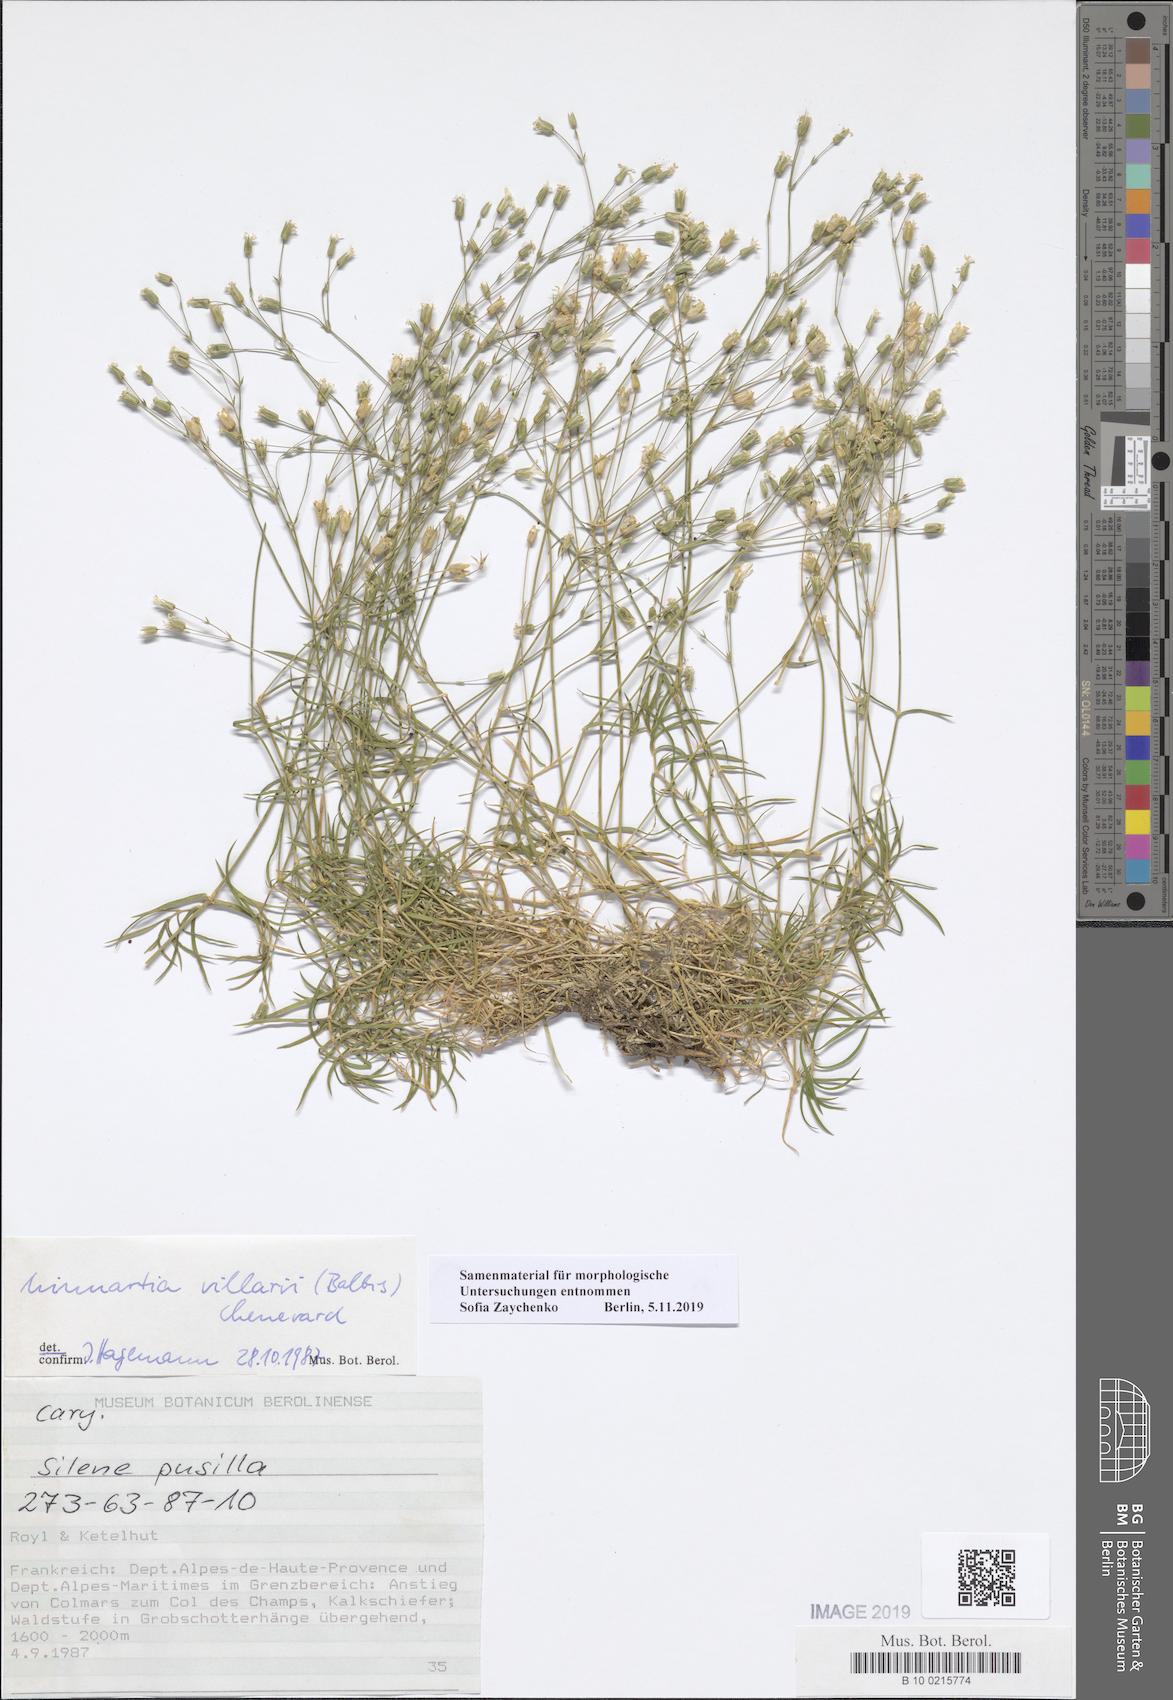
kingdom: Plantae
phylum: Tracheophyta
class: Magnoliopsida
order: Caryophyllales
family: Caryophyllaceae
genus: Sabulina
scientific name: Sabulina villarii
